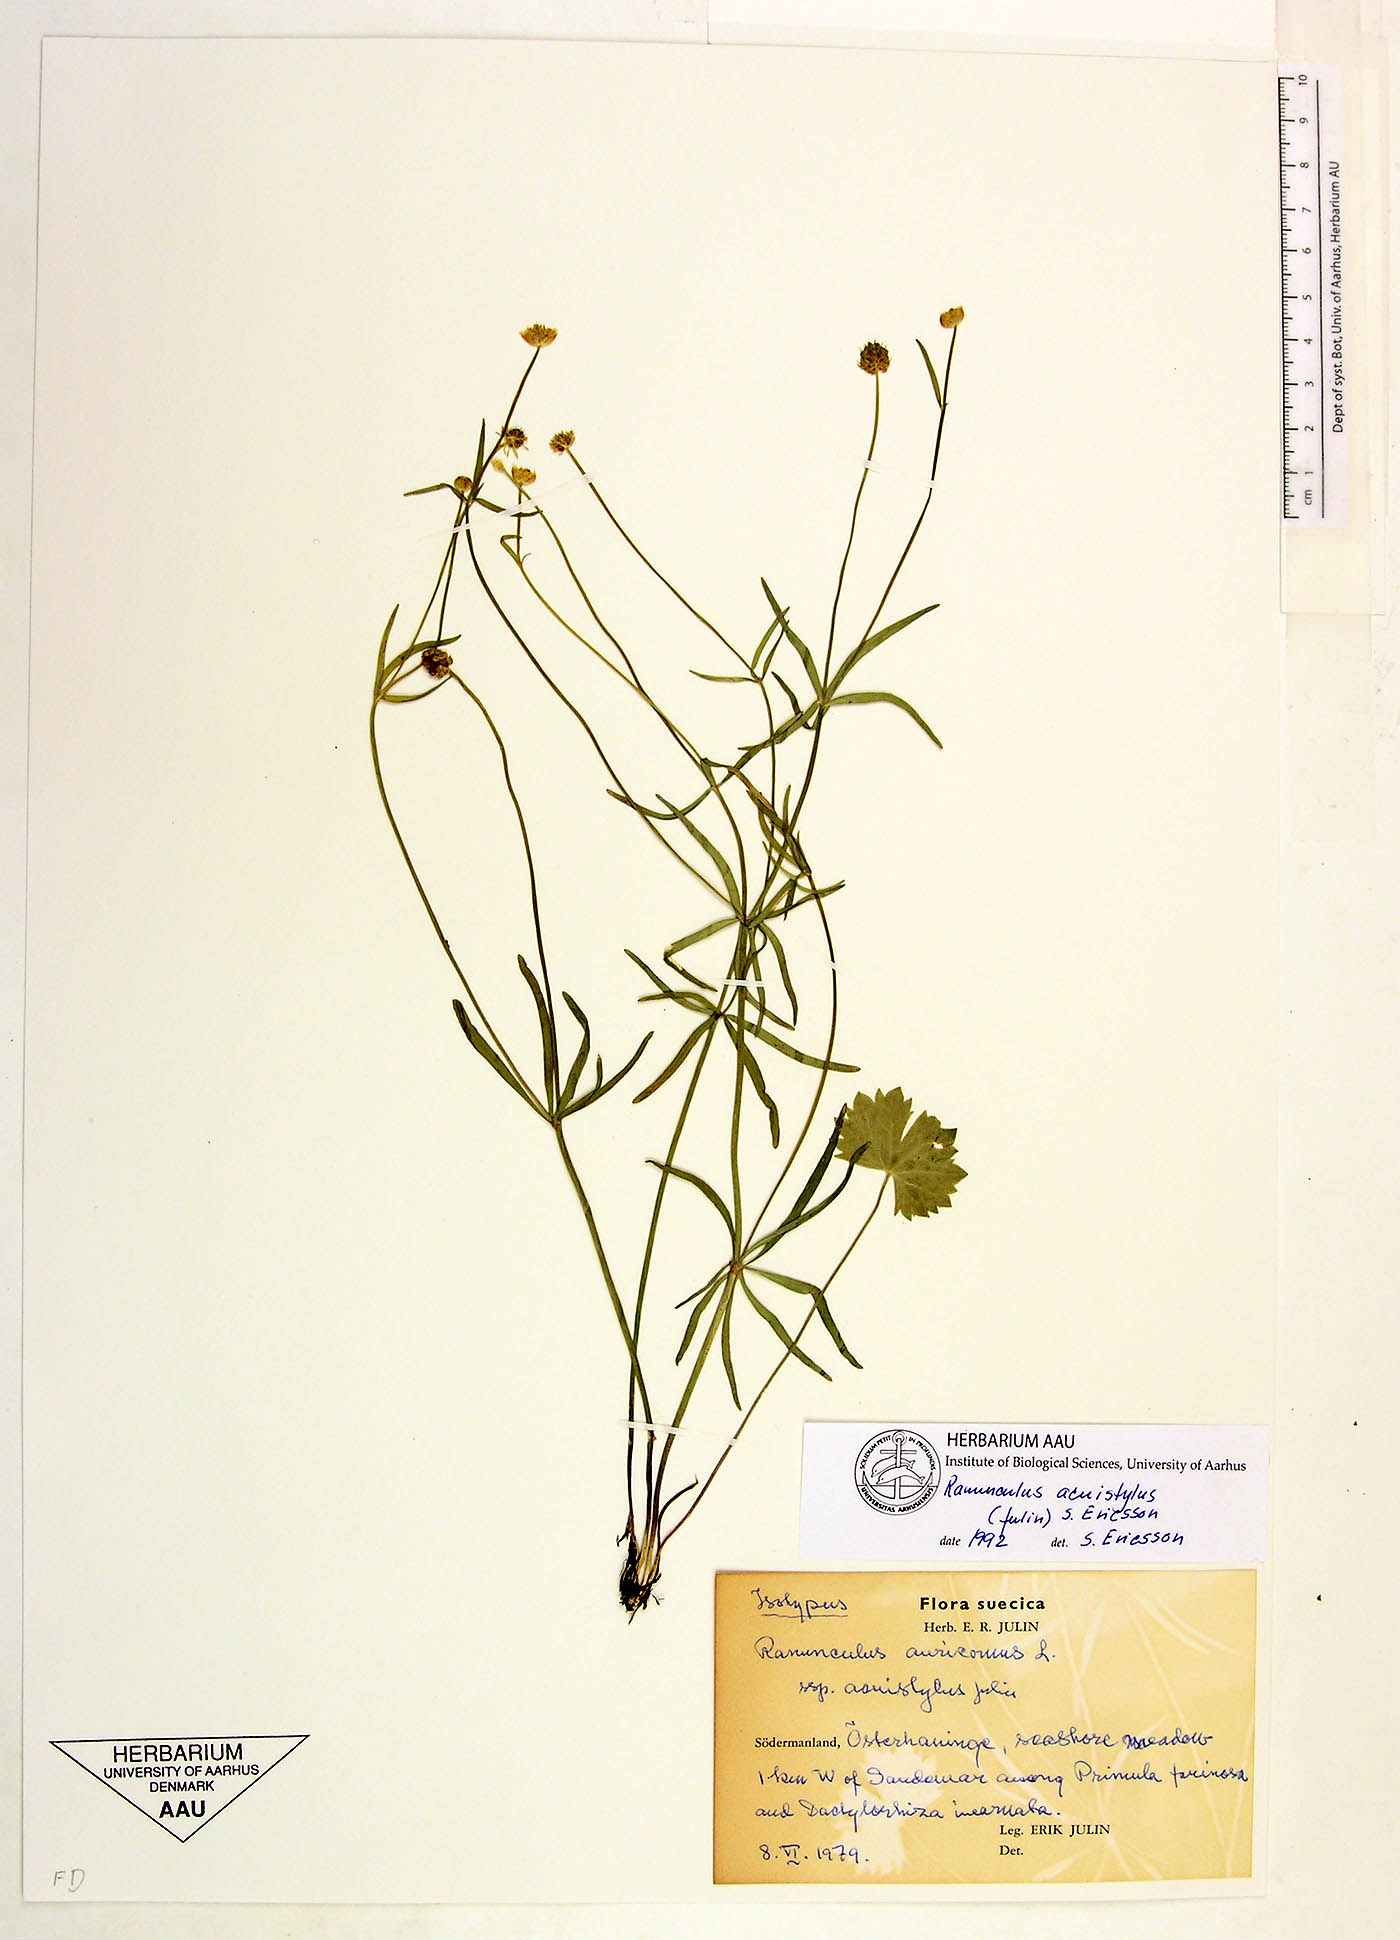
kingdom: Plantae
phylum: Tracheophyta
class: Magnoliopsida
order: Ranunculales
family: Ranunculaceae
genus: Ranunculus
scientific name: Ranunculus fallacillus
